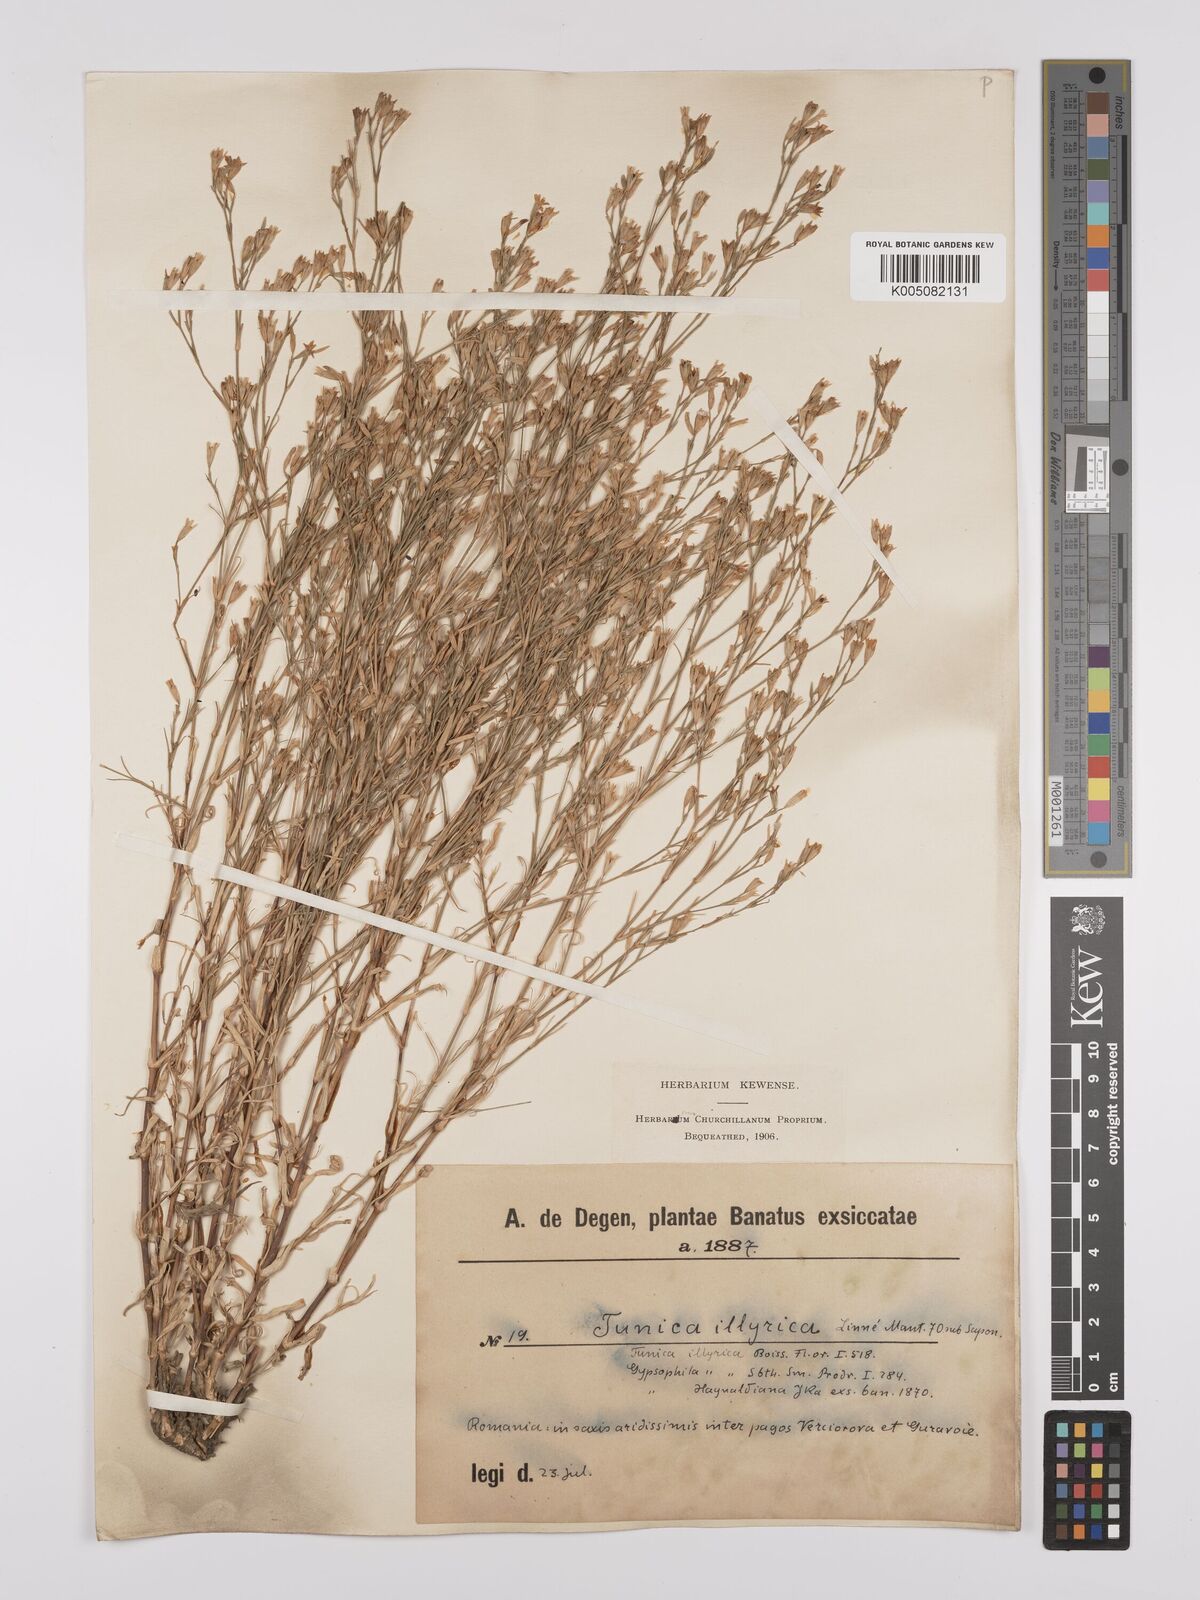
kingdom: Plantae
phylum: Tracheophyta
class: Magnoliopsida
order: Caryophyllales
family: Caryophyllaceae
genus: Dianthus
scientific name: Dianthus illyricus
